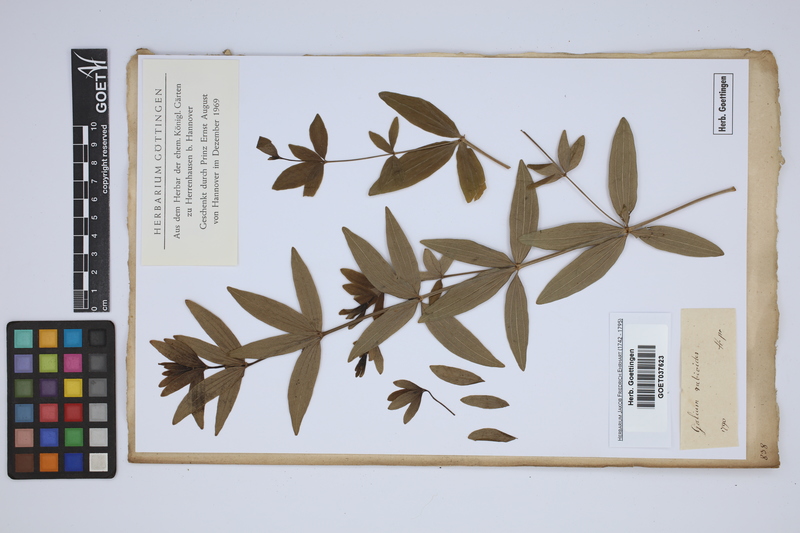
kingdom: Plantae
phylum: Tracheophyta
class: Magnoliopsida
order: Gentianales
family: Rubiaceae
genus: Galium
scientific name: Galium rubioides
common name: European bedstraw
